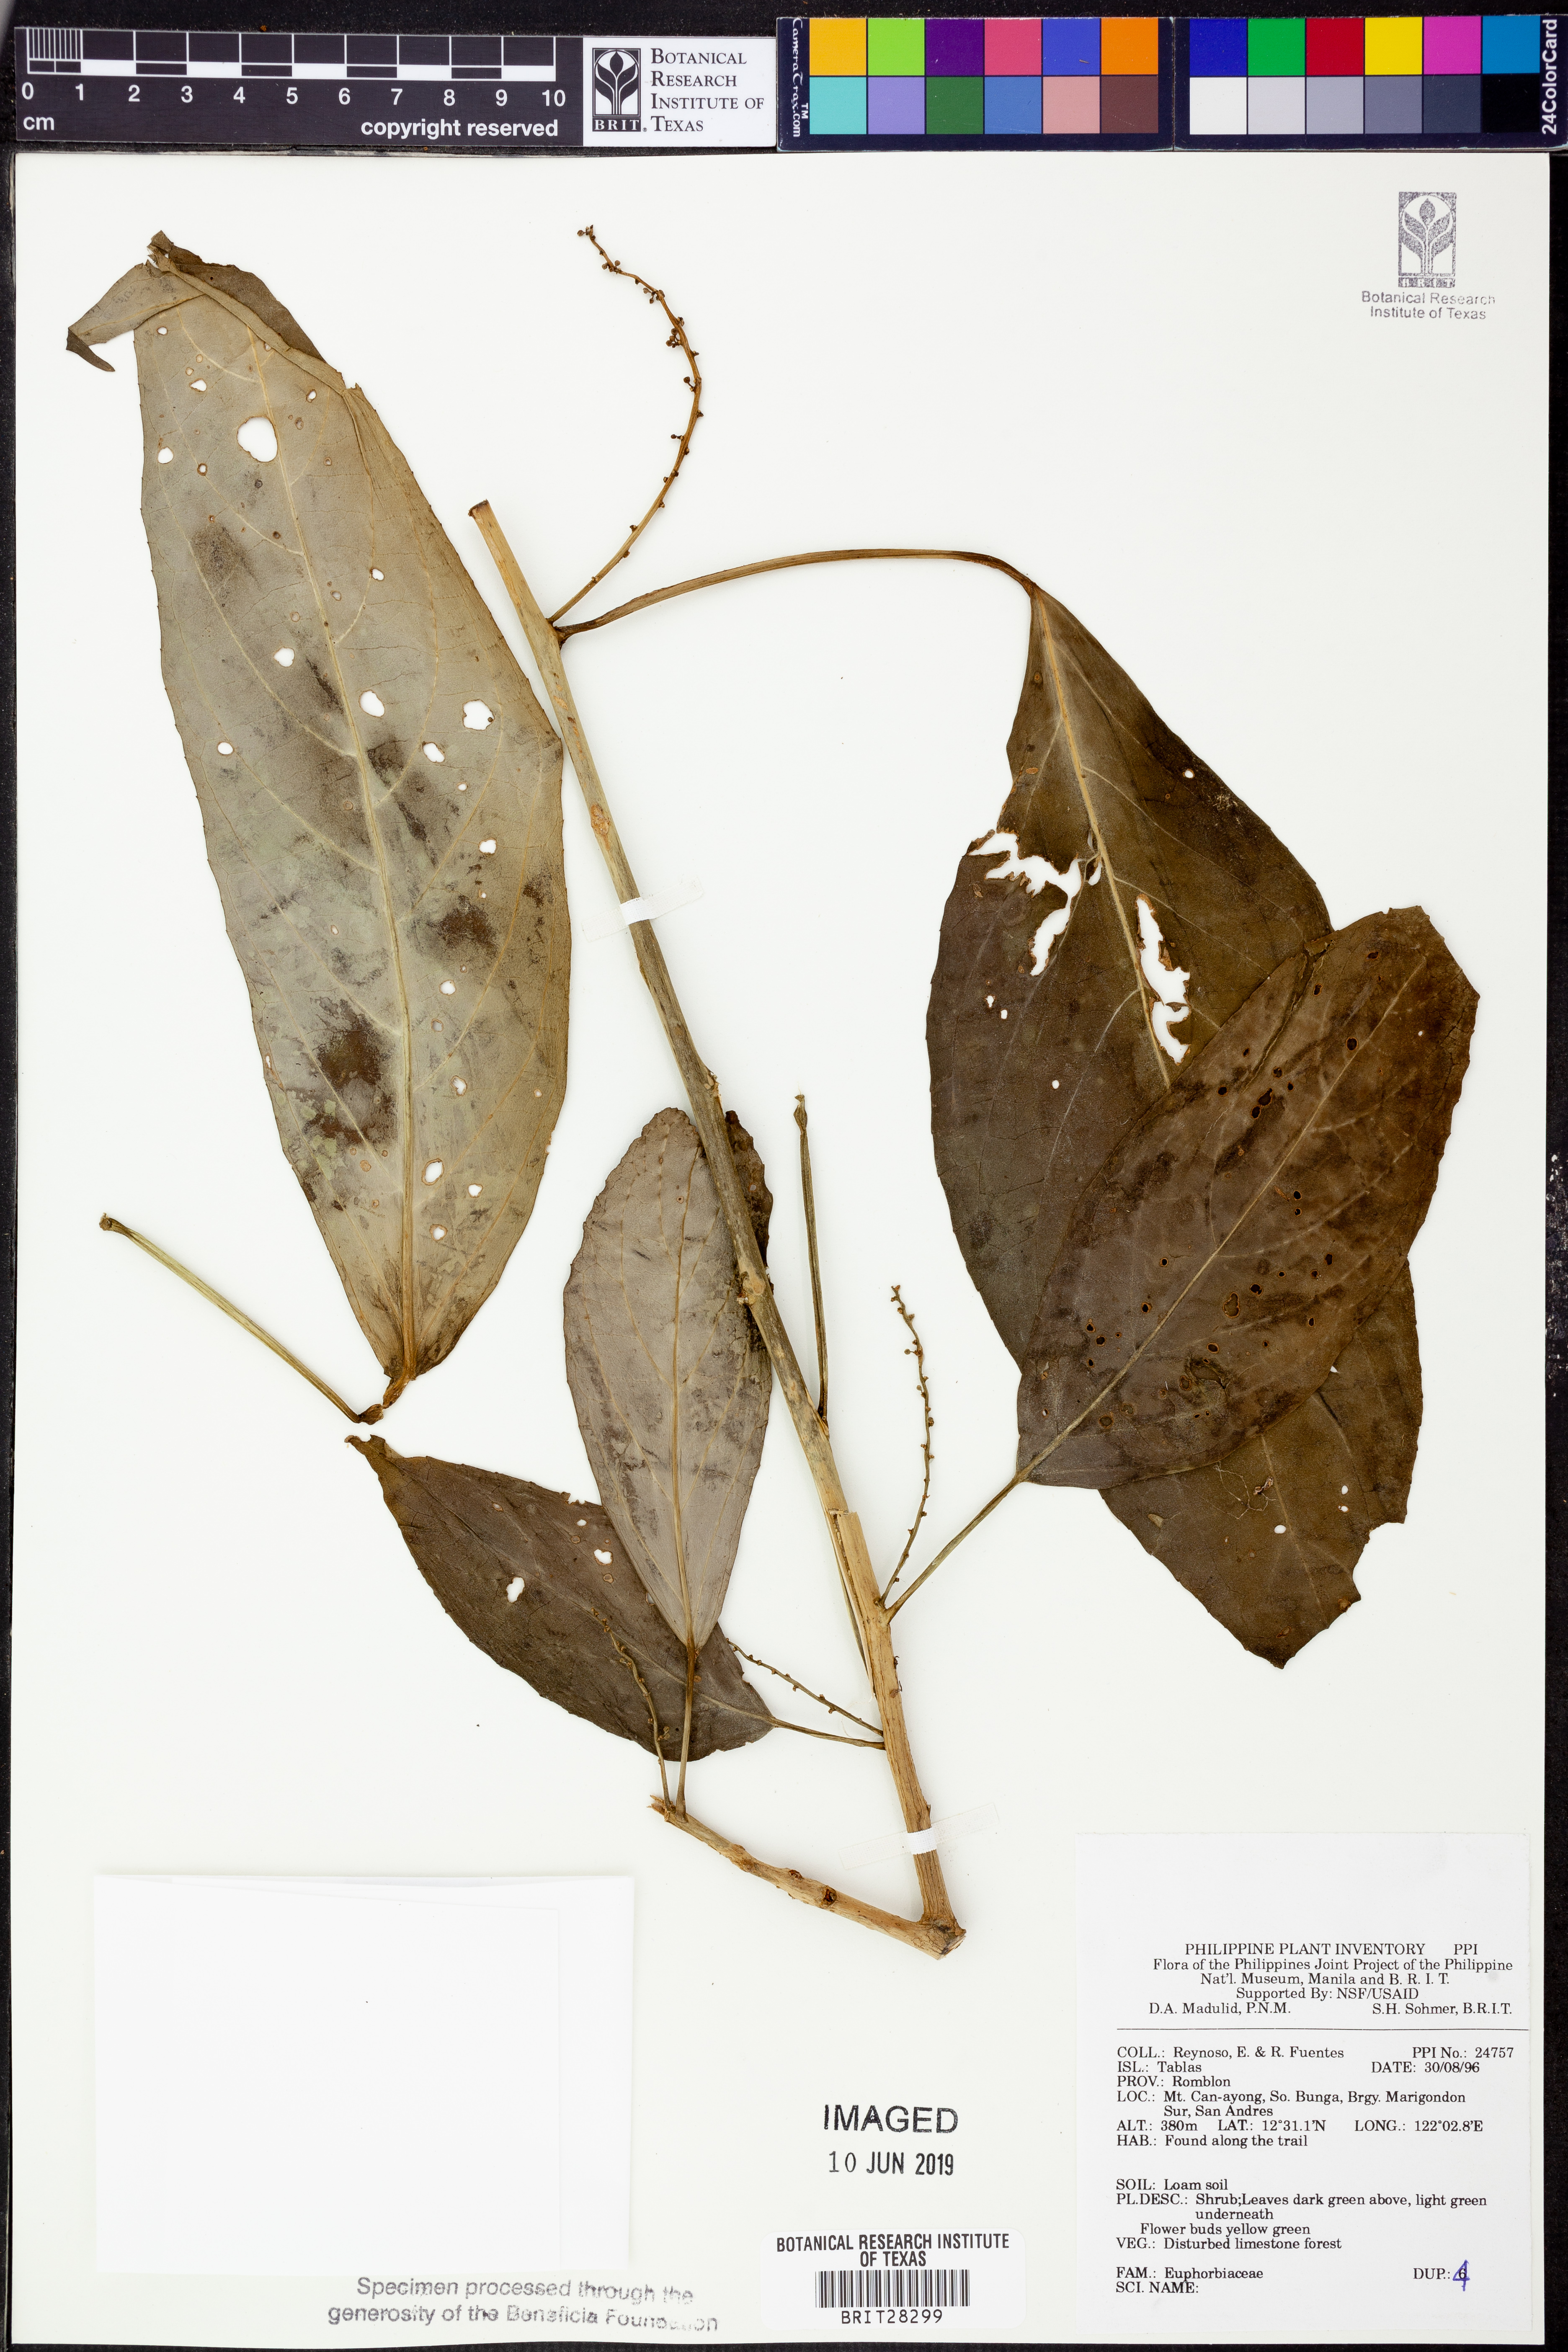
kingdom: Plantae
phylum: Tracheophyta
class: Magnoliopsida
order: Malpighiales
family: Euphorbiaceae
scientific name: Euphorbiaceae
